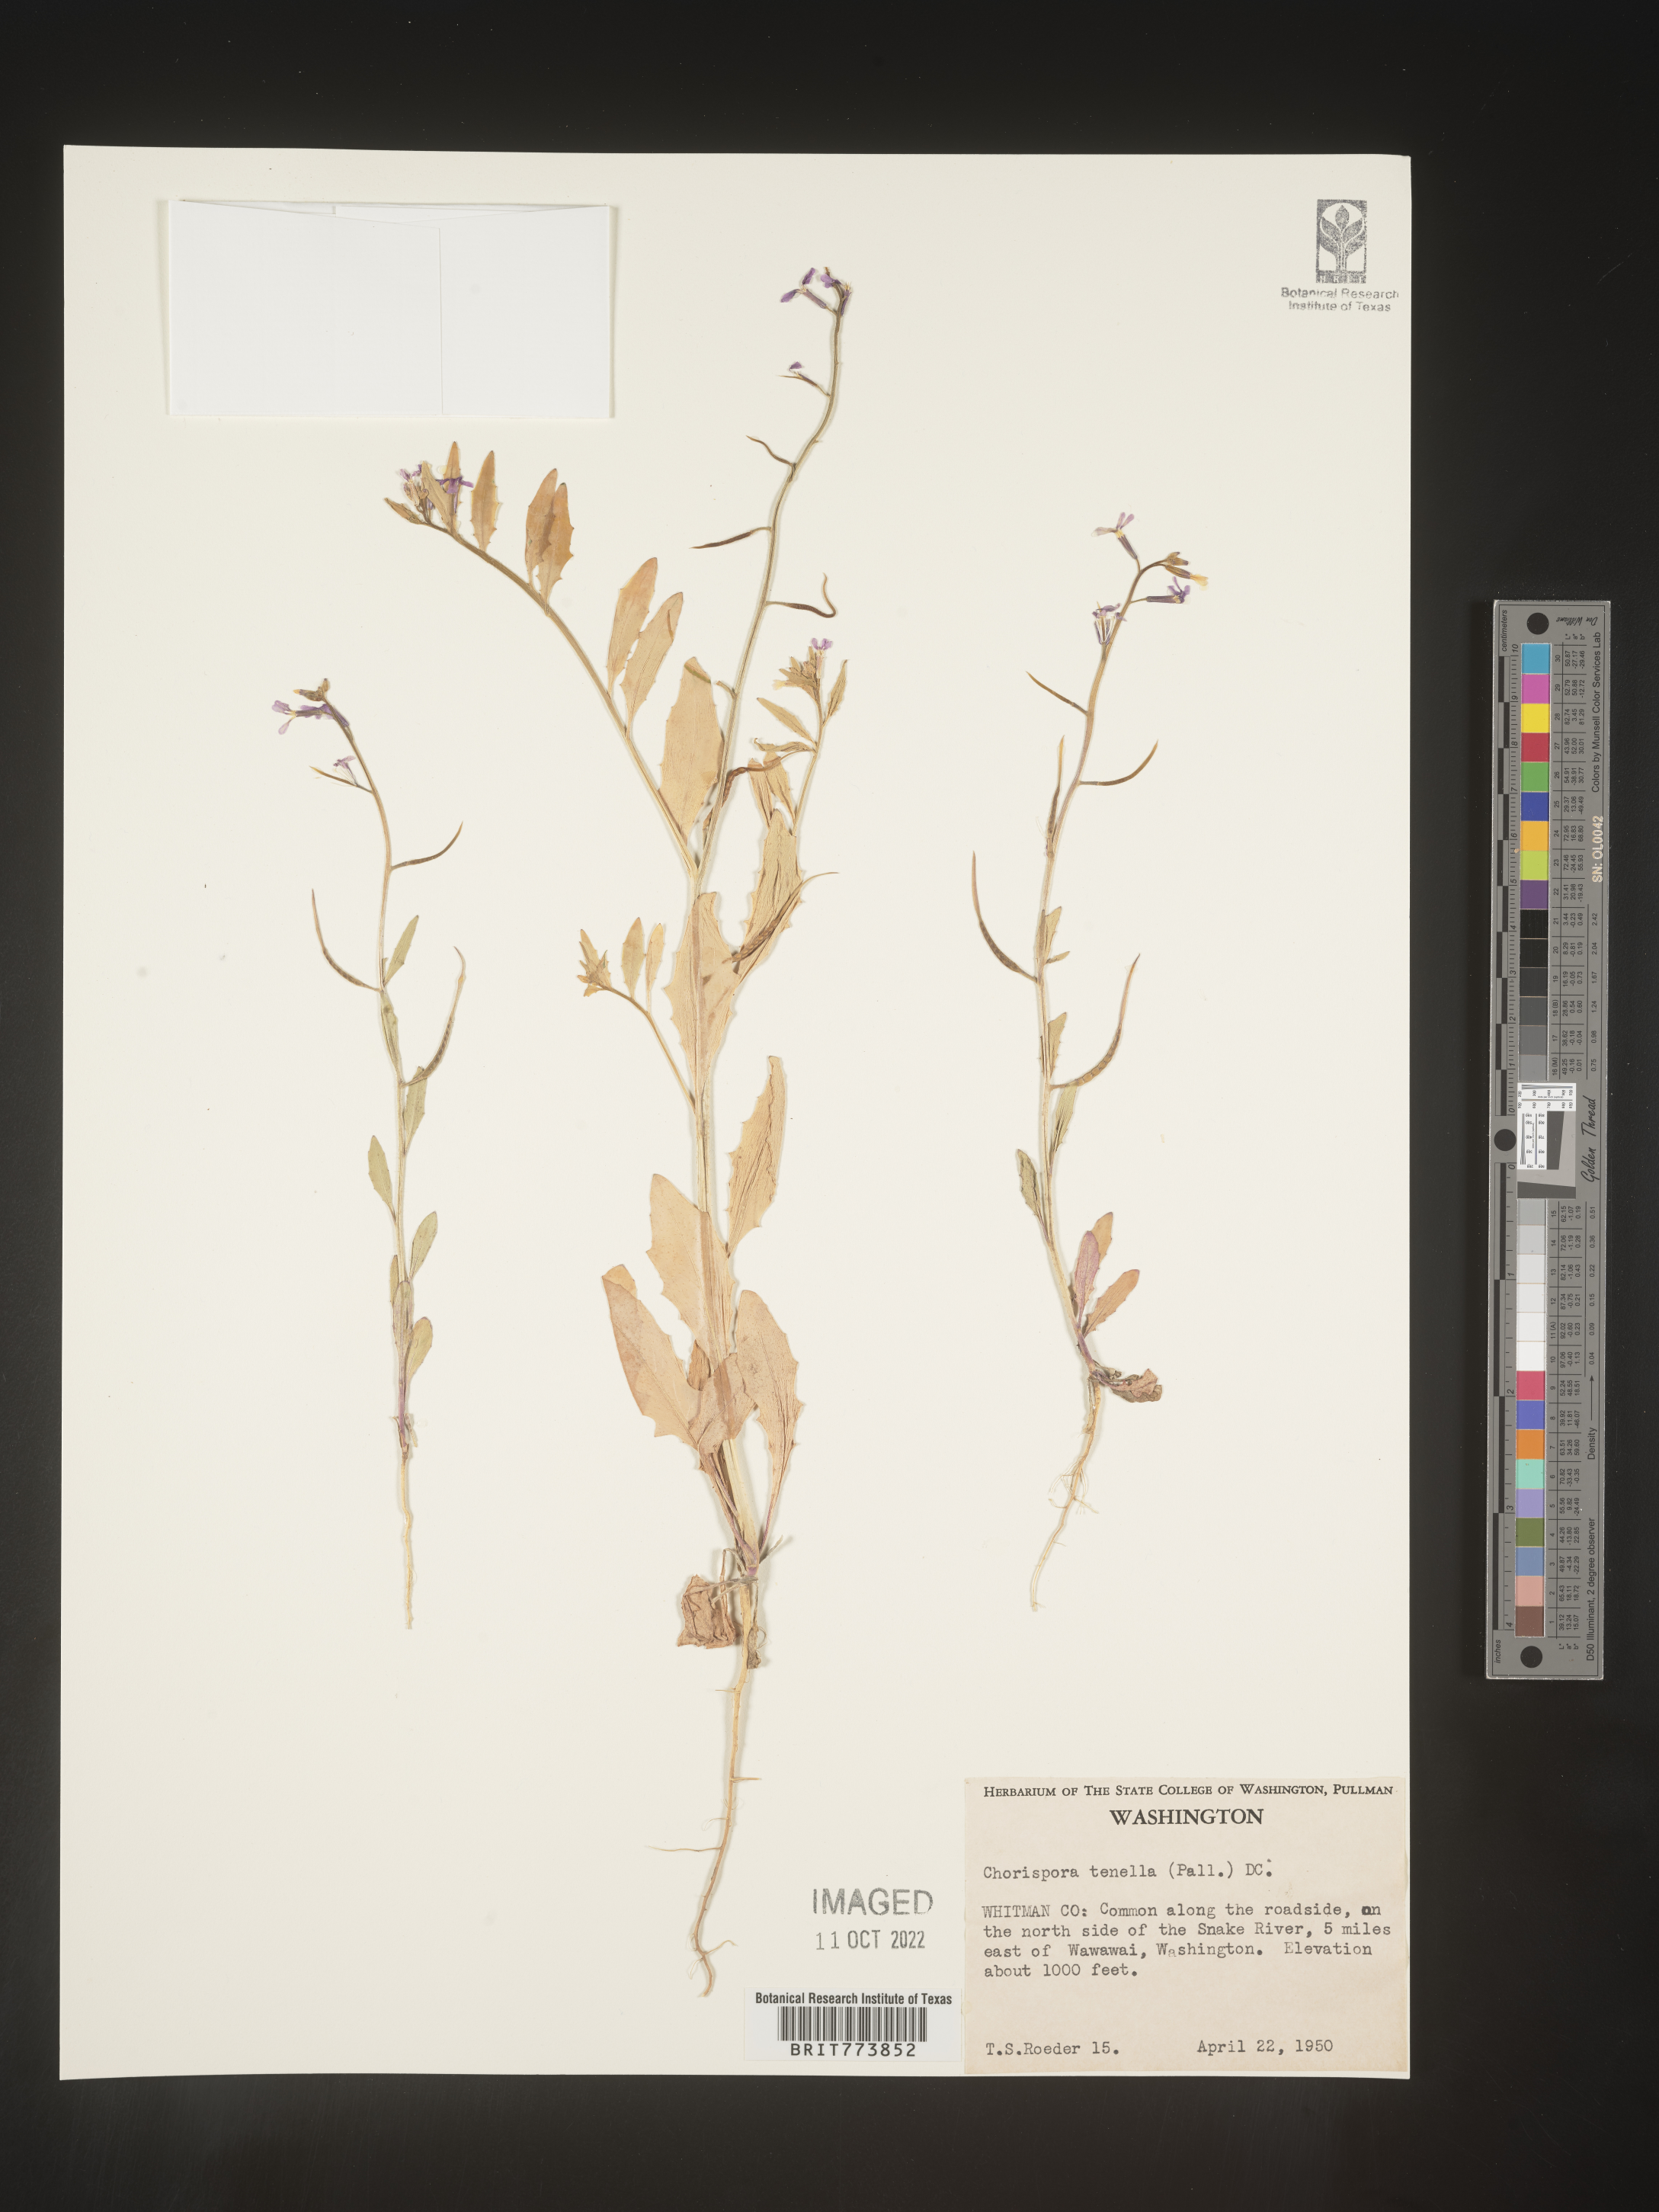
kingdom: Plantae
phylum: Tracheophyta
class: Magnoliopsida
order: Brassicales
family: Brassicaceae
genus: Chorispora
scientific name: Chorispora tenella
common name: Crossflower
